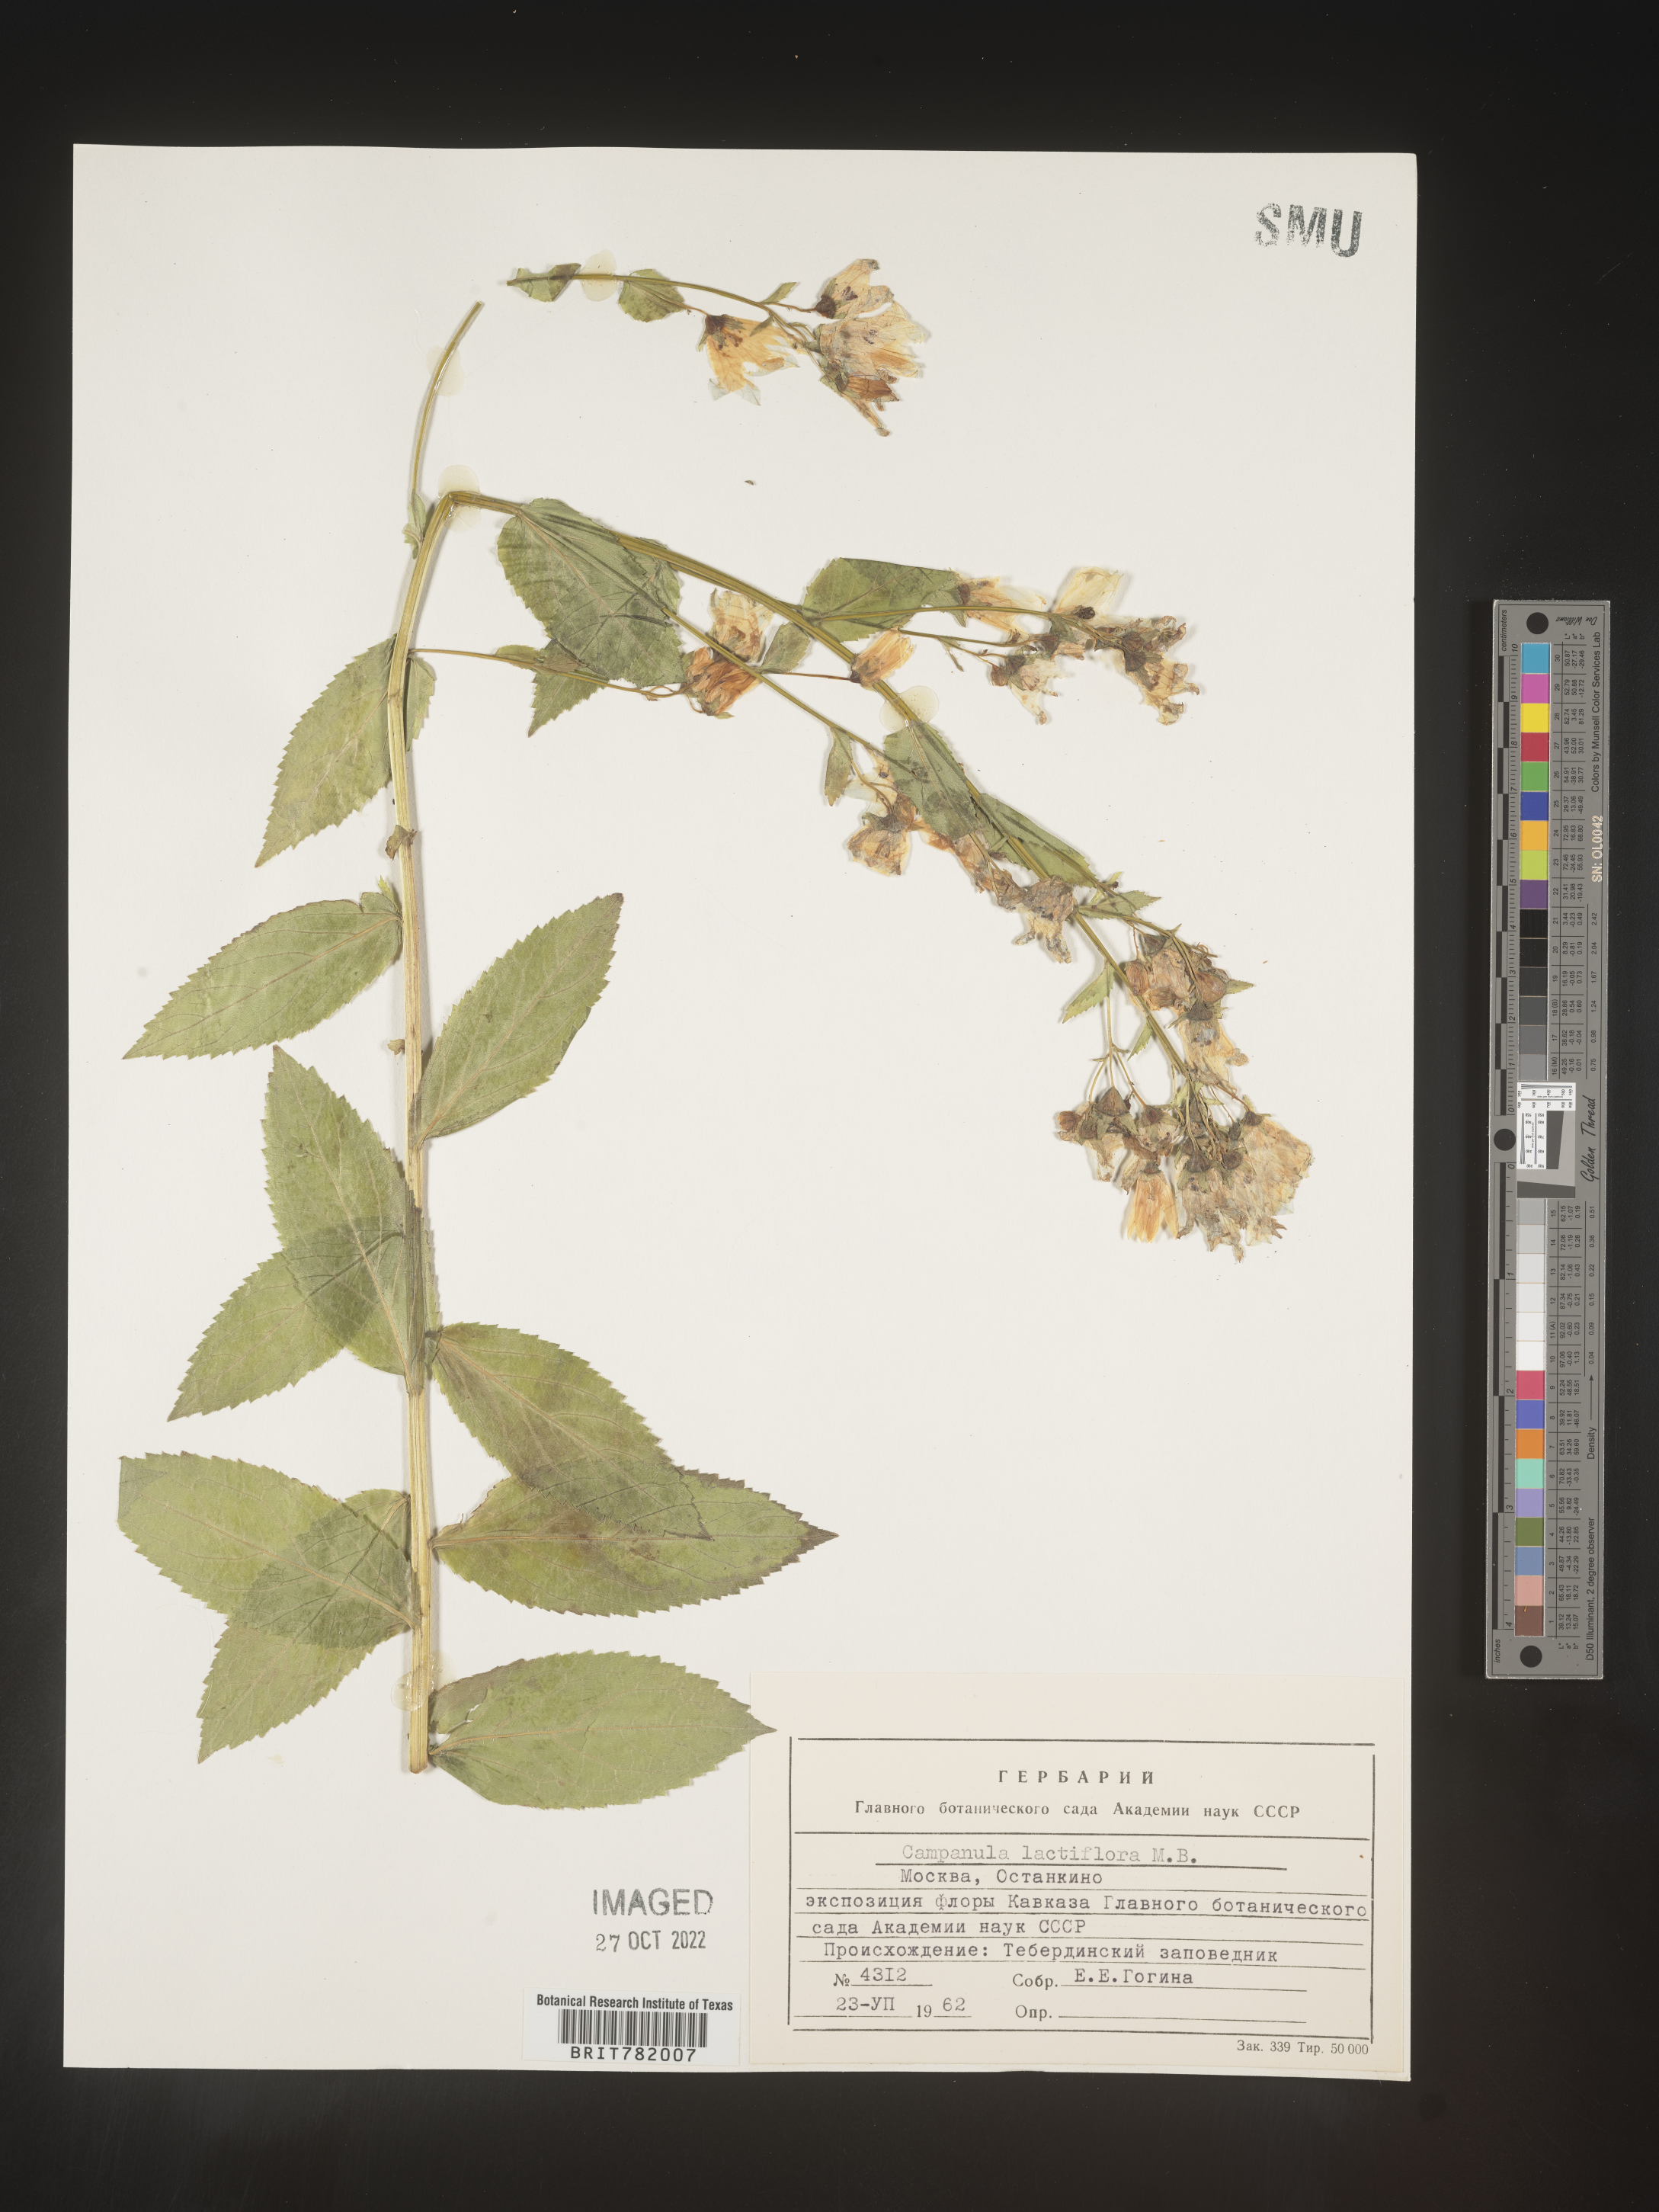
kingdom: Plantae
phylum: Tracheophyta
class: Magnoliopsida
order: Asterales
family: Campanulaceae
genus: Campanula
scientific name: Campanula
